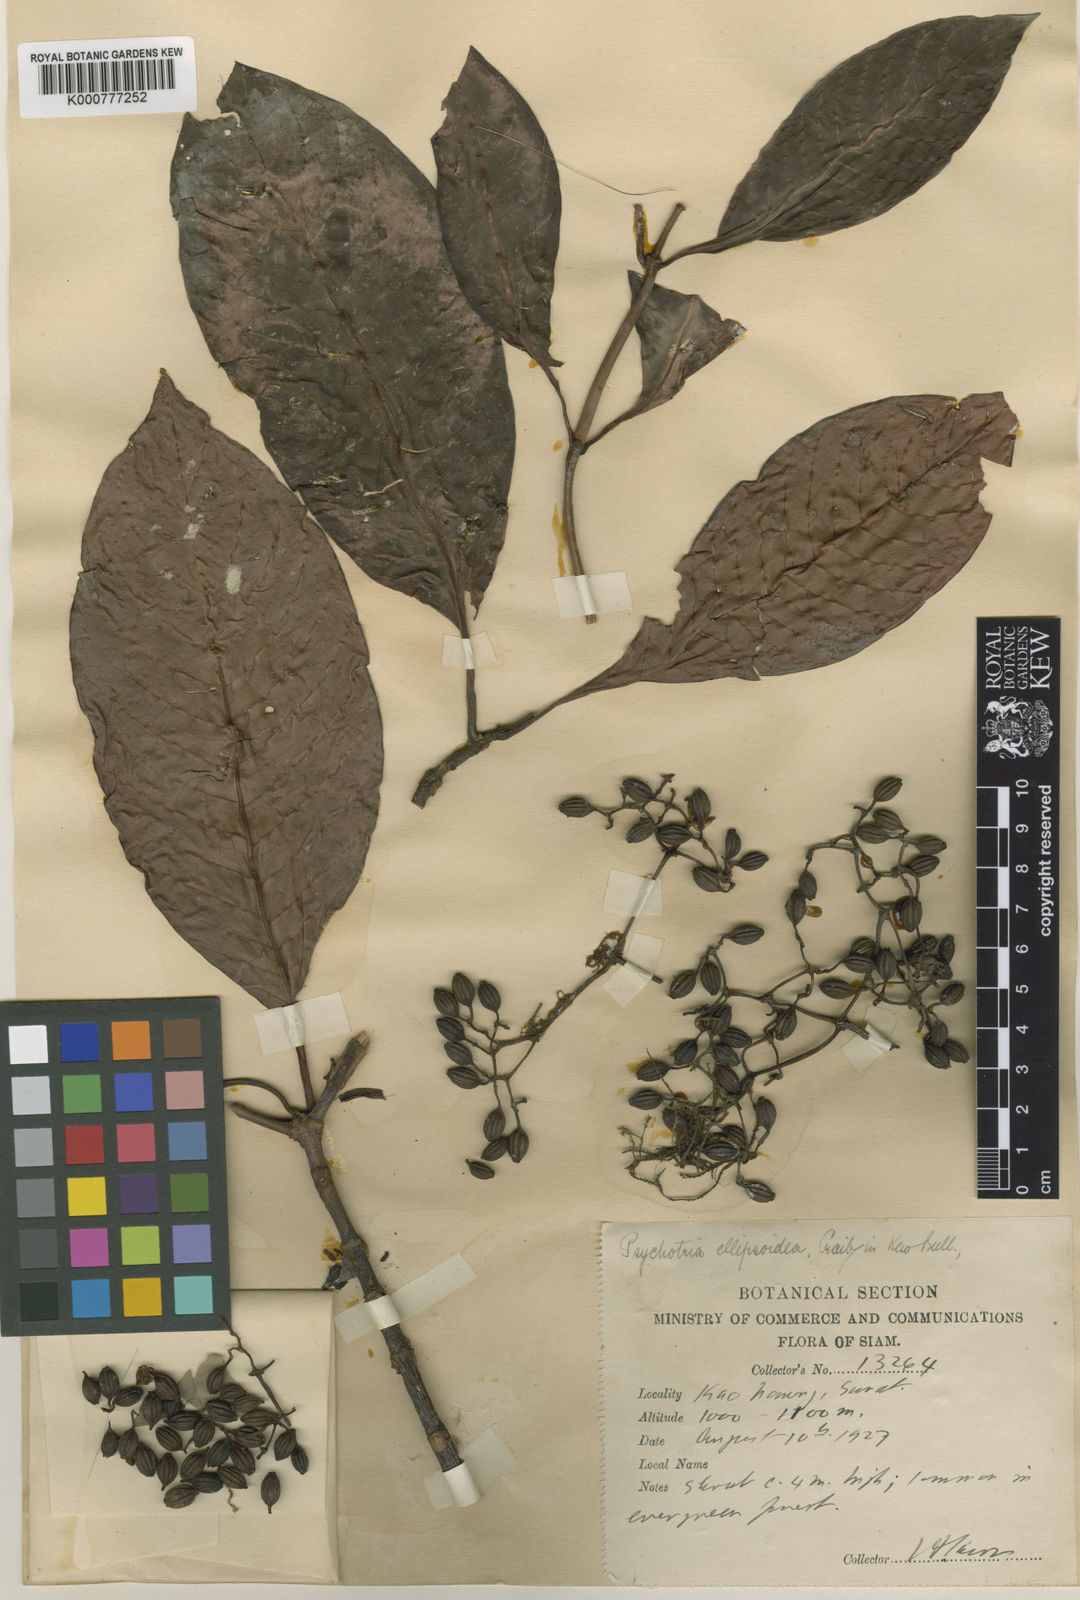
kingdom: Plantae
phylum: Tracheophyta
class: Magnoliopsida
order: Gentianales
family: Rubiaceae
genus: Psychotria
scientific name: Psychotria ellipsoidea
